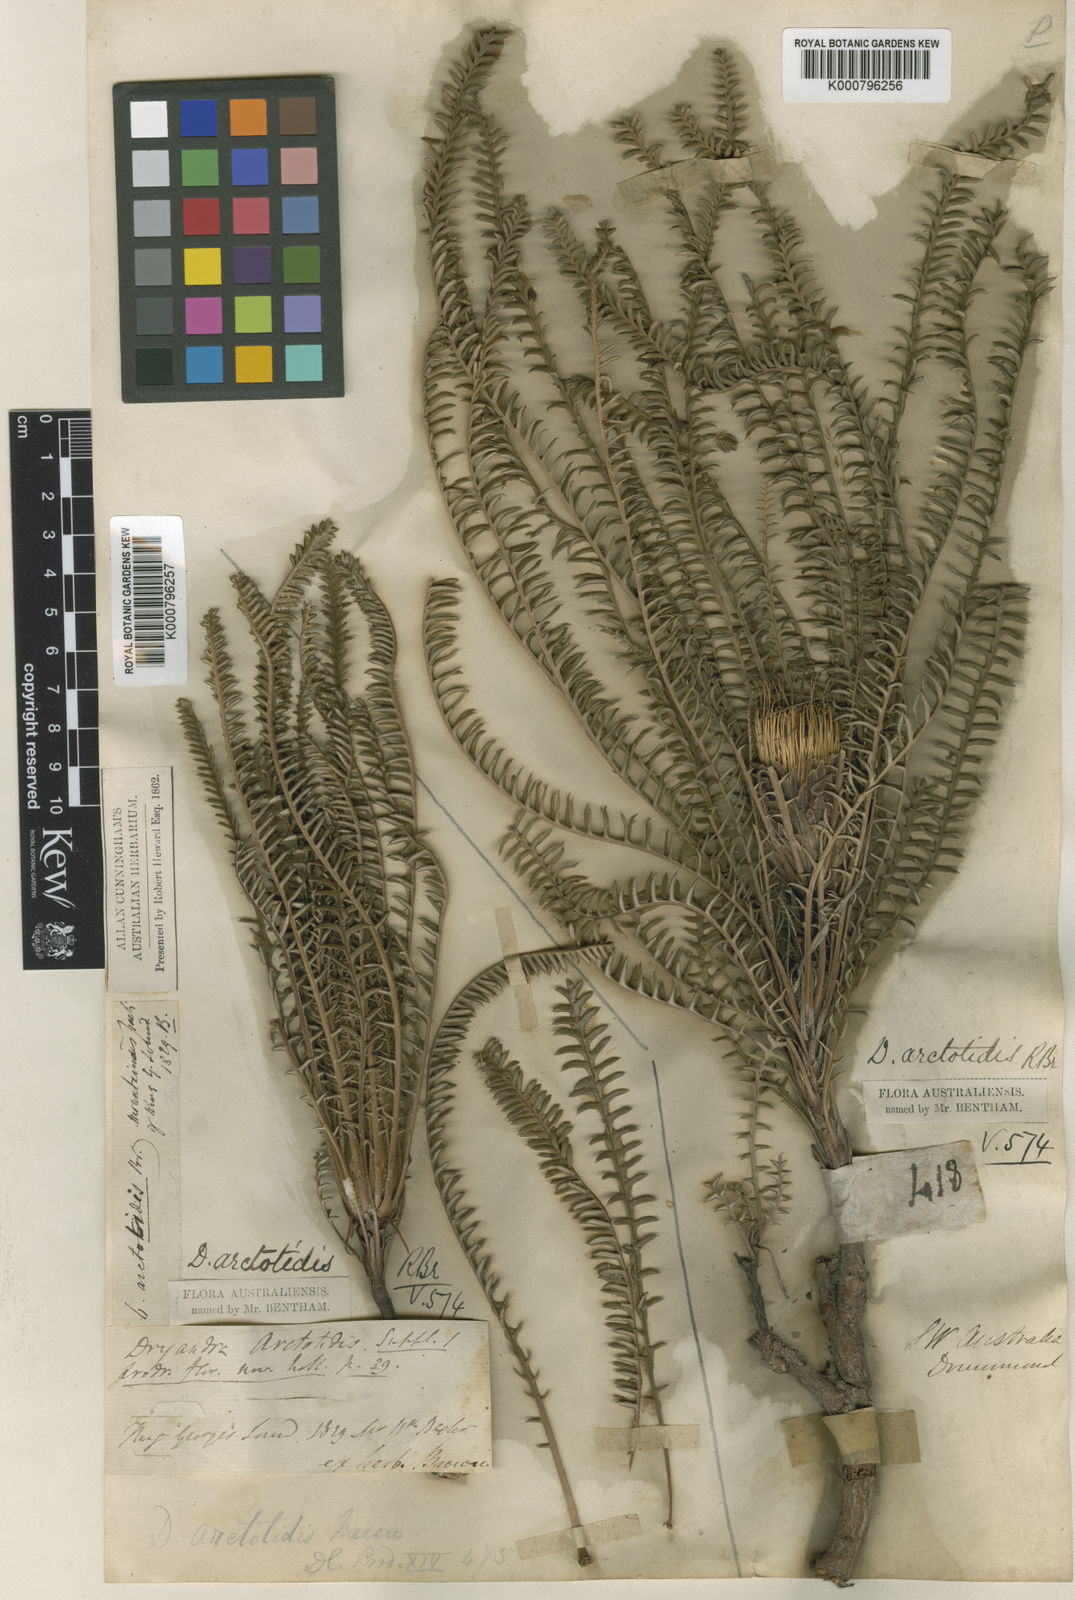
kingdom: Plantae
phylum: Tracheophyta
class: Magnoliopsida
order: Proteales
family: Proteaceae
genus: Banksia
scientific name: Banksia arctotidis
